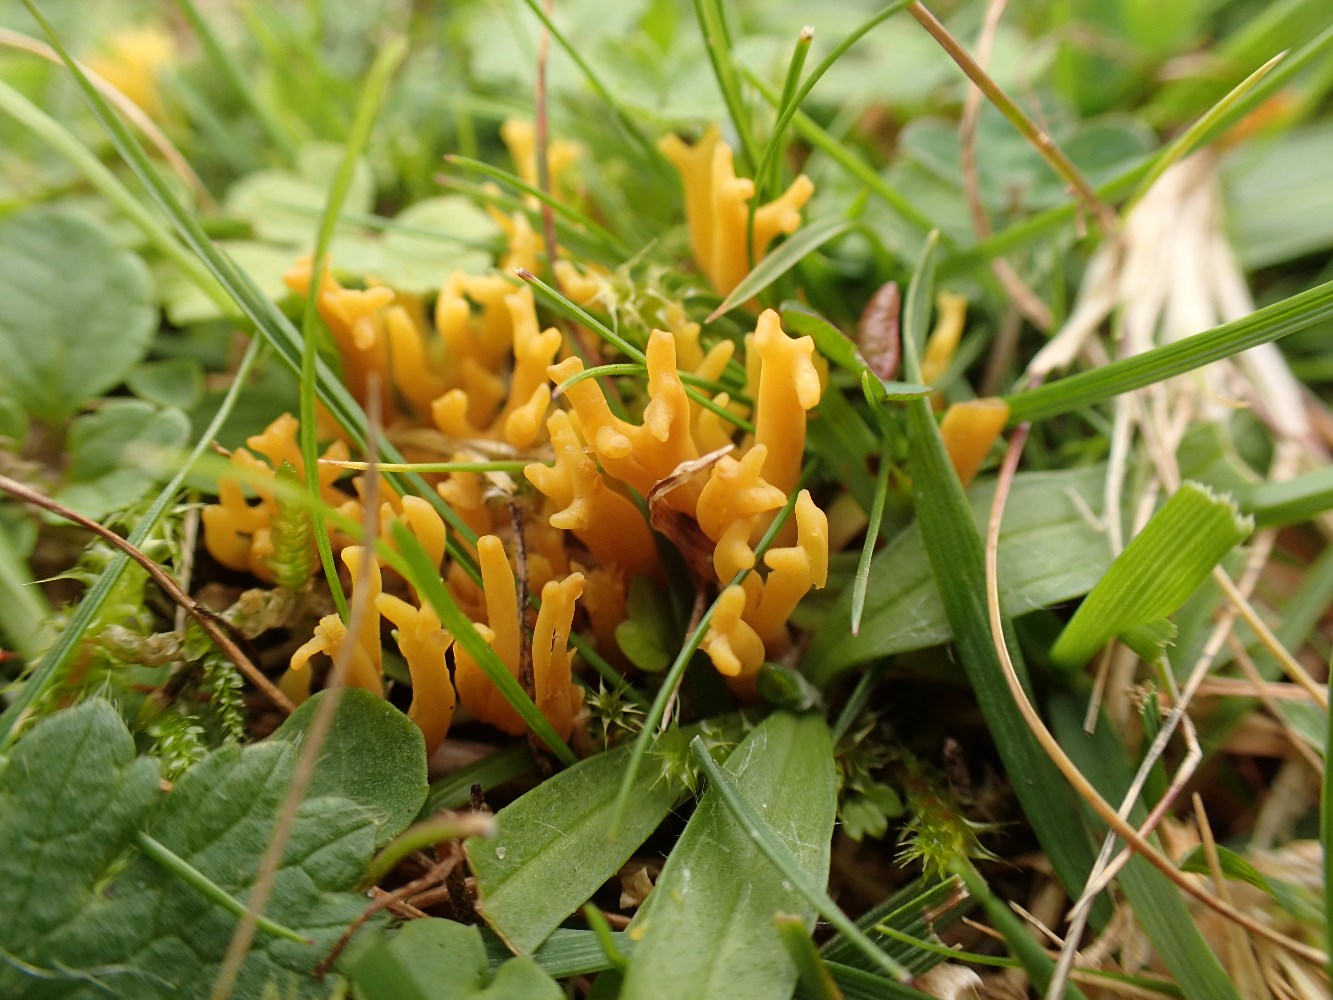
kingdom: Fungi
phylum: Basidiomycota
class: Agaricomycetes
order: Agaricales
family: Clavariaceae
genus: Clavulinopsis
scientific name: Clavulinopsis corniculata
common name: eng-køllesvamp
